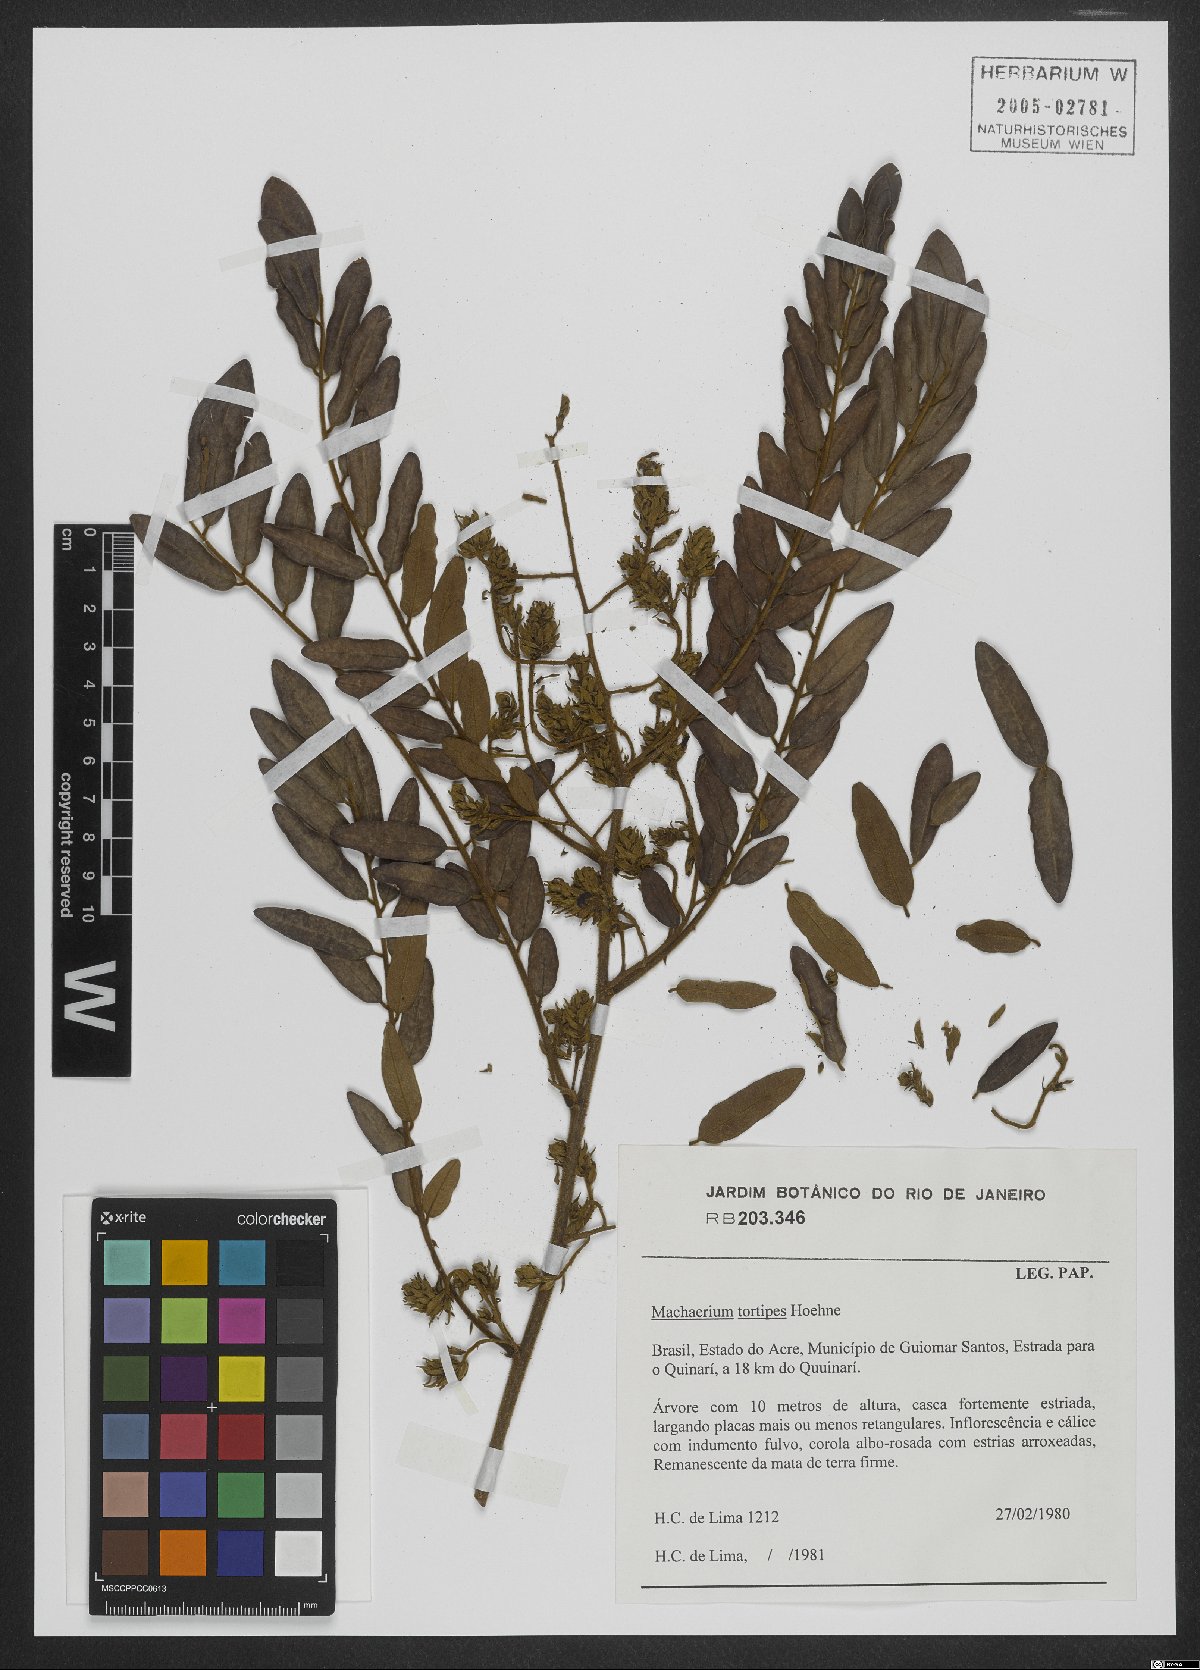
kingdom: Plantae
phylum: Tracheophyta
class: Magnoliopsida
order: Fabales
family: Fabaceae
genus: Machaerium
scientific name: Machaerium tortipes
